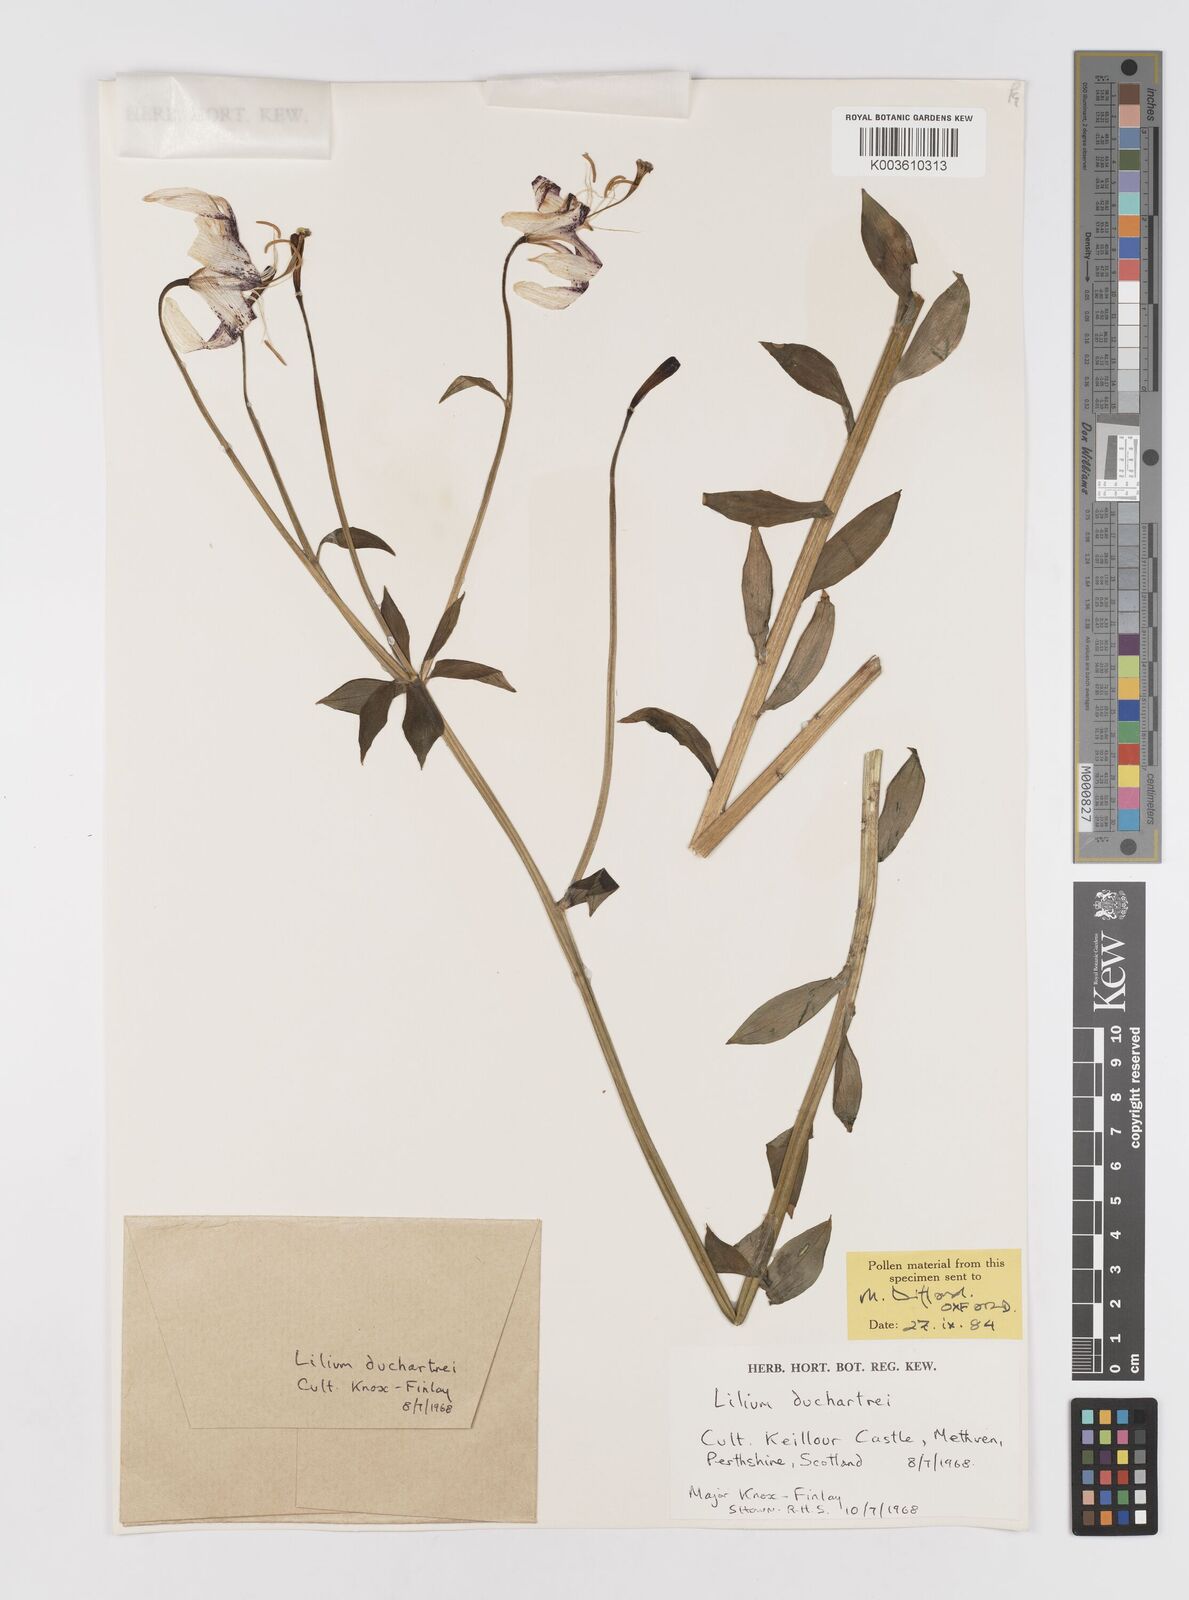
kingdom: Plantae
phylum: Tracheophyta
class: Liliopsida
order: Liliales
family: Liliaceae
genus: Lilium
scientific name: Lilium duchartrei
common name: Duchartre lily
